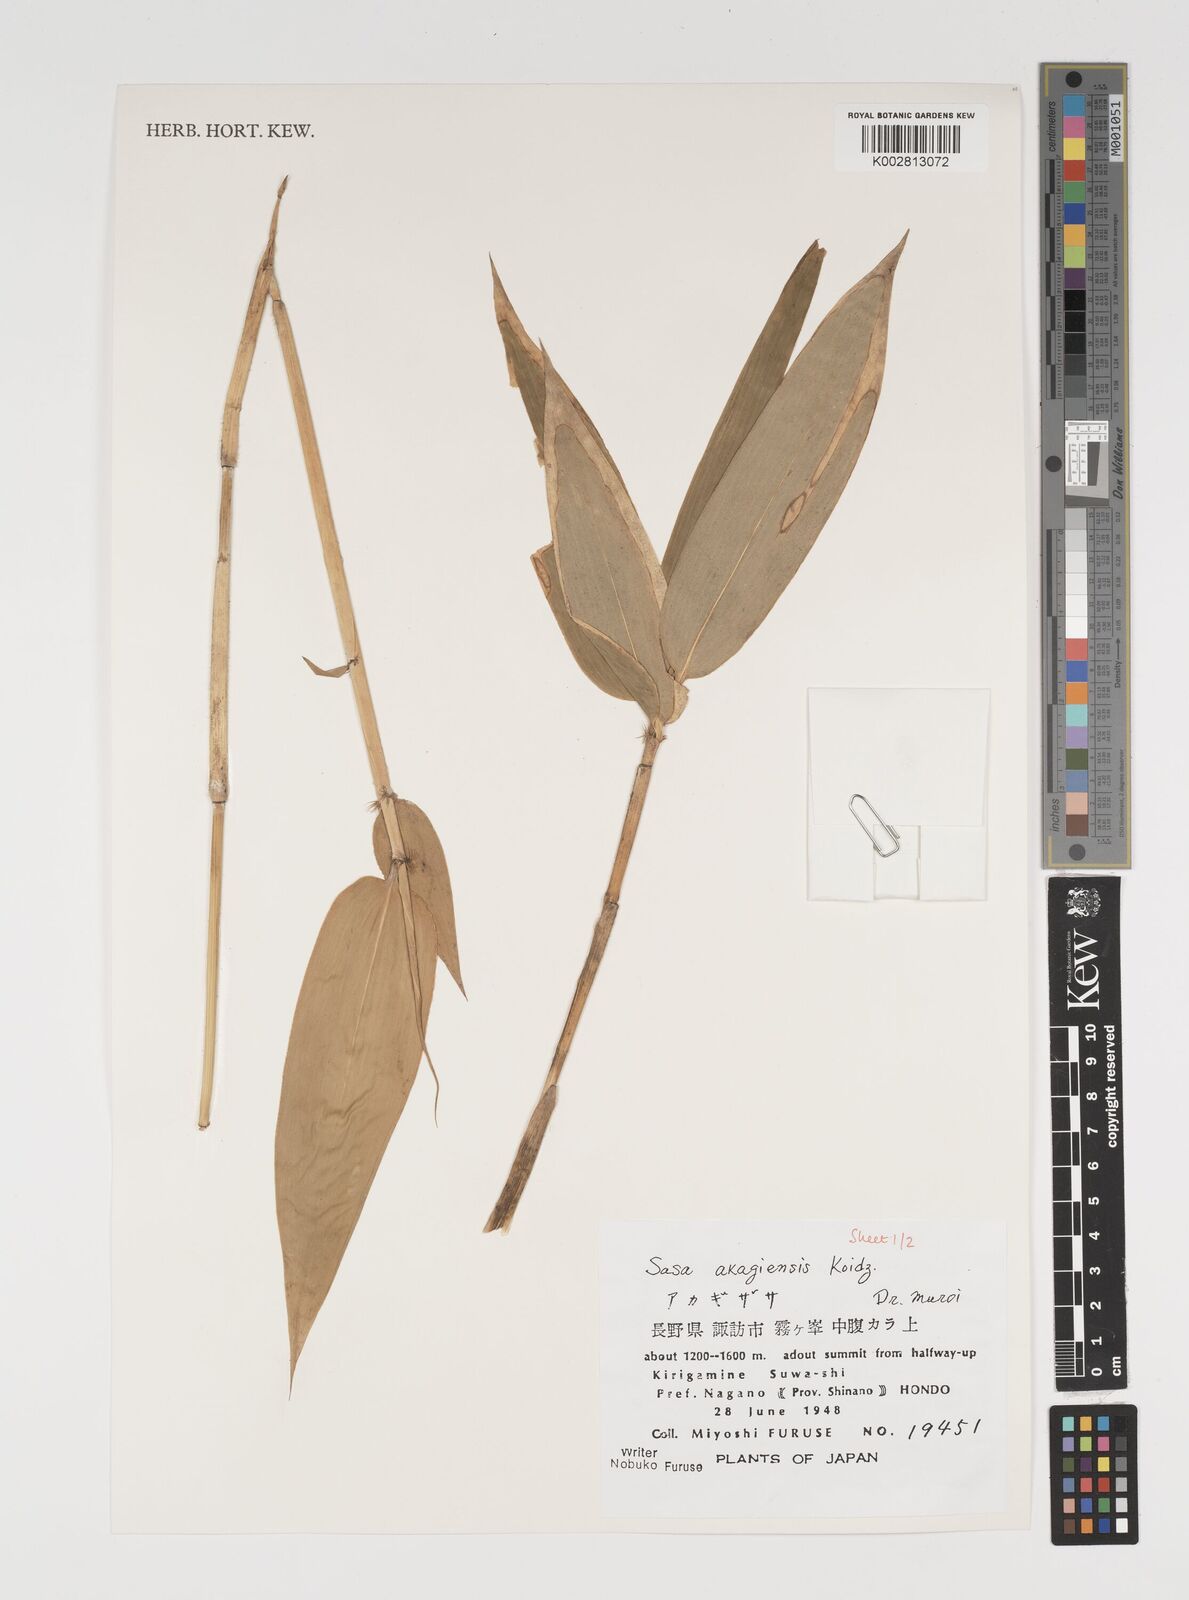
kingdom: Plantae
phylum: Tracheophyta
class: Liliopsida
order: Poales
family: Poaceae
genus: Sasa
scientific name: Sasa kurilensis
